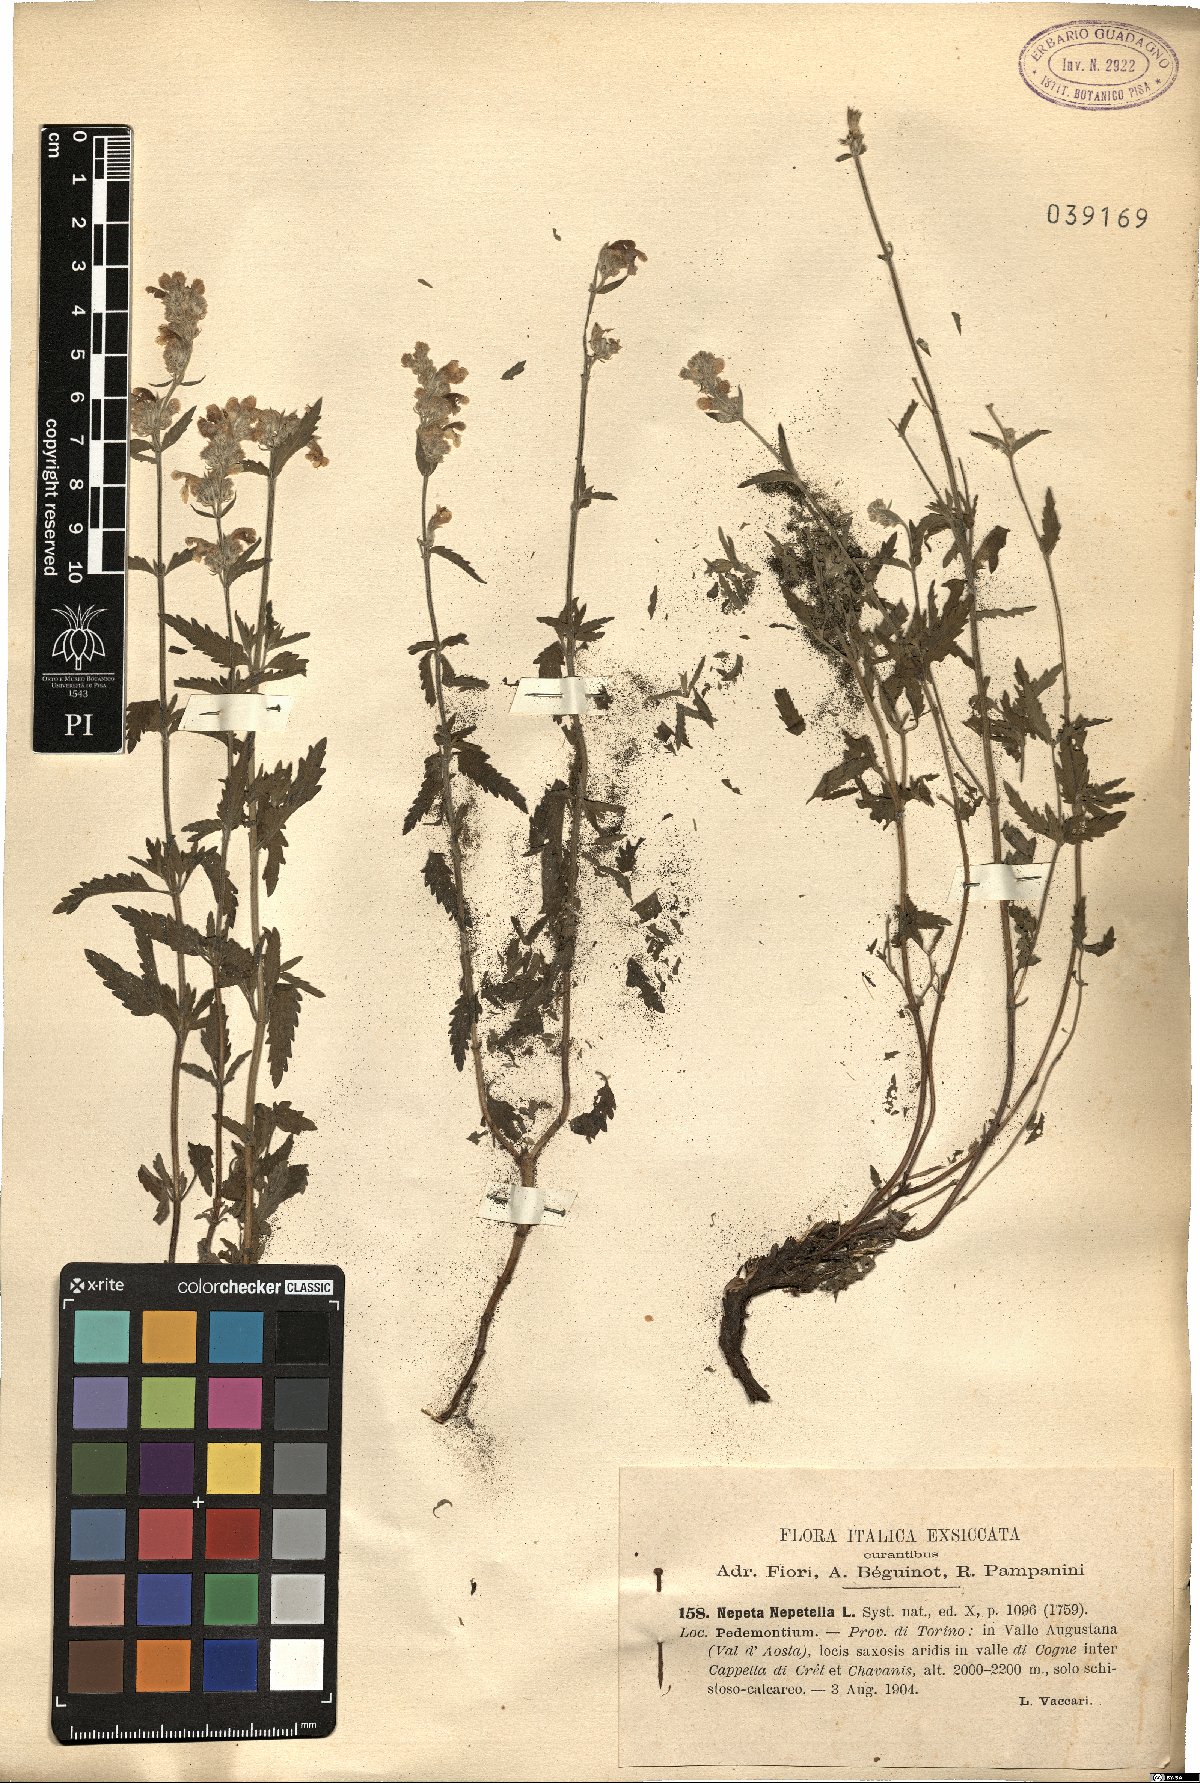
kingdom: Plantae
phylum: Tracheophyta
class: Magnoliopsida
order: Lamiales
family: Lamiaceae
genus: Nepeta
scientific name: Nepeta nepetella
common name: Lesser catmint
